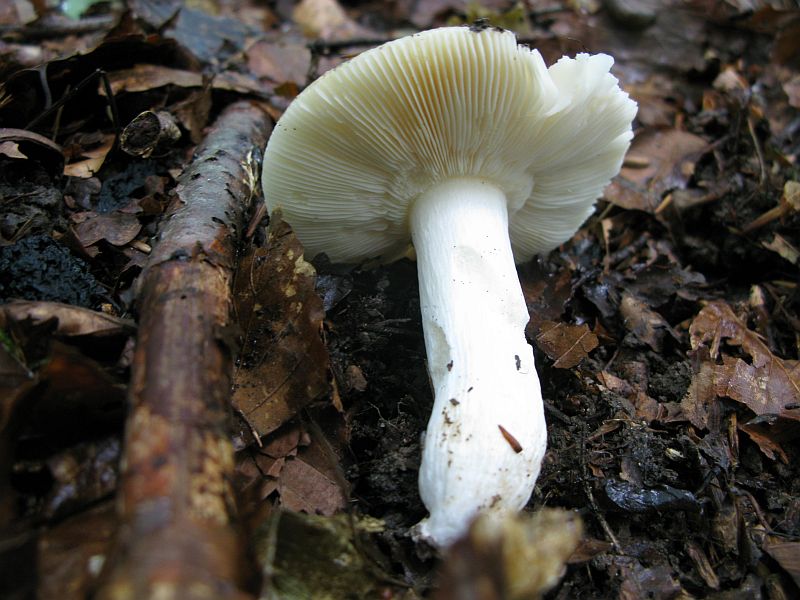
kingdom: Fungi
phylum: Basidiomycota
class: Agaricomycetes
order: Russulales
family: Russulaceae
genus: Russula
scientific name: Russula solaris
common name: sol-skørhat
